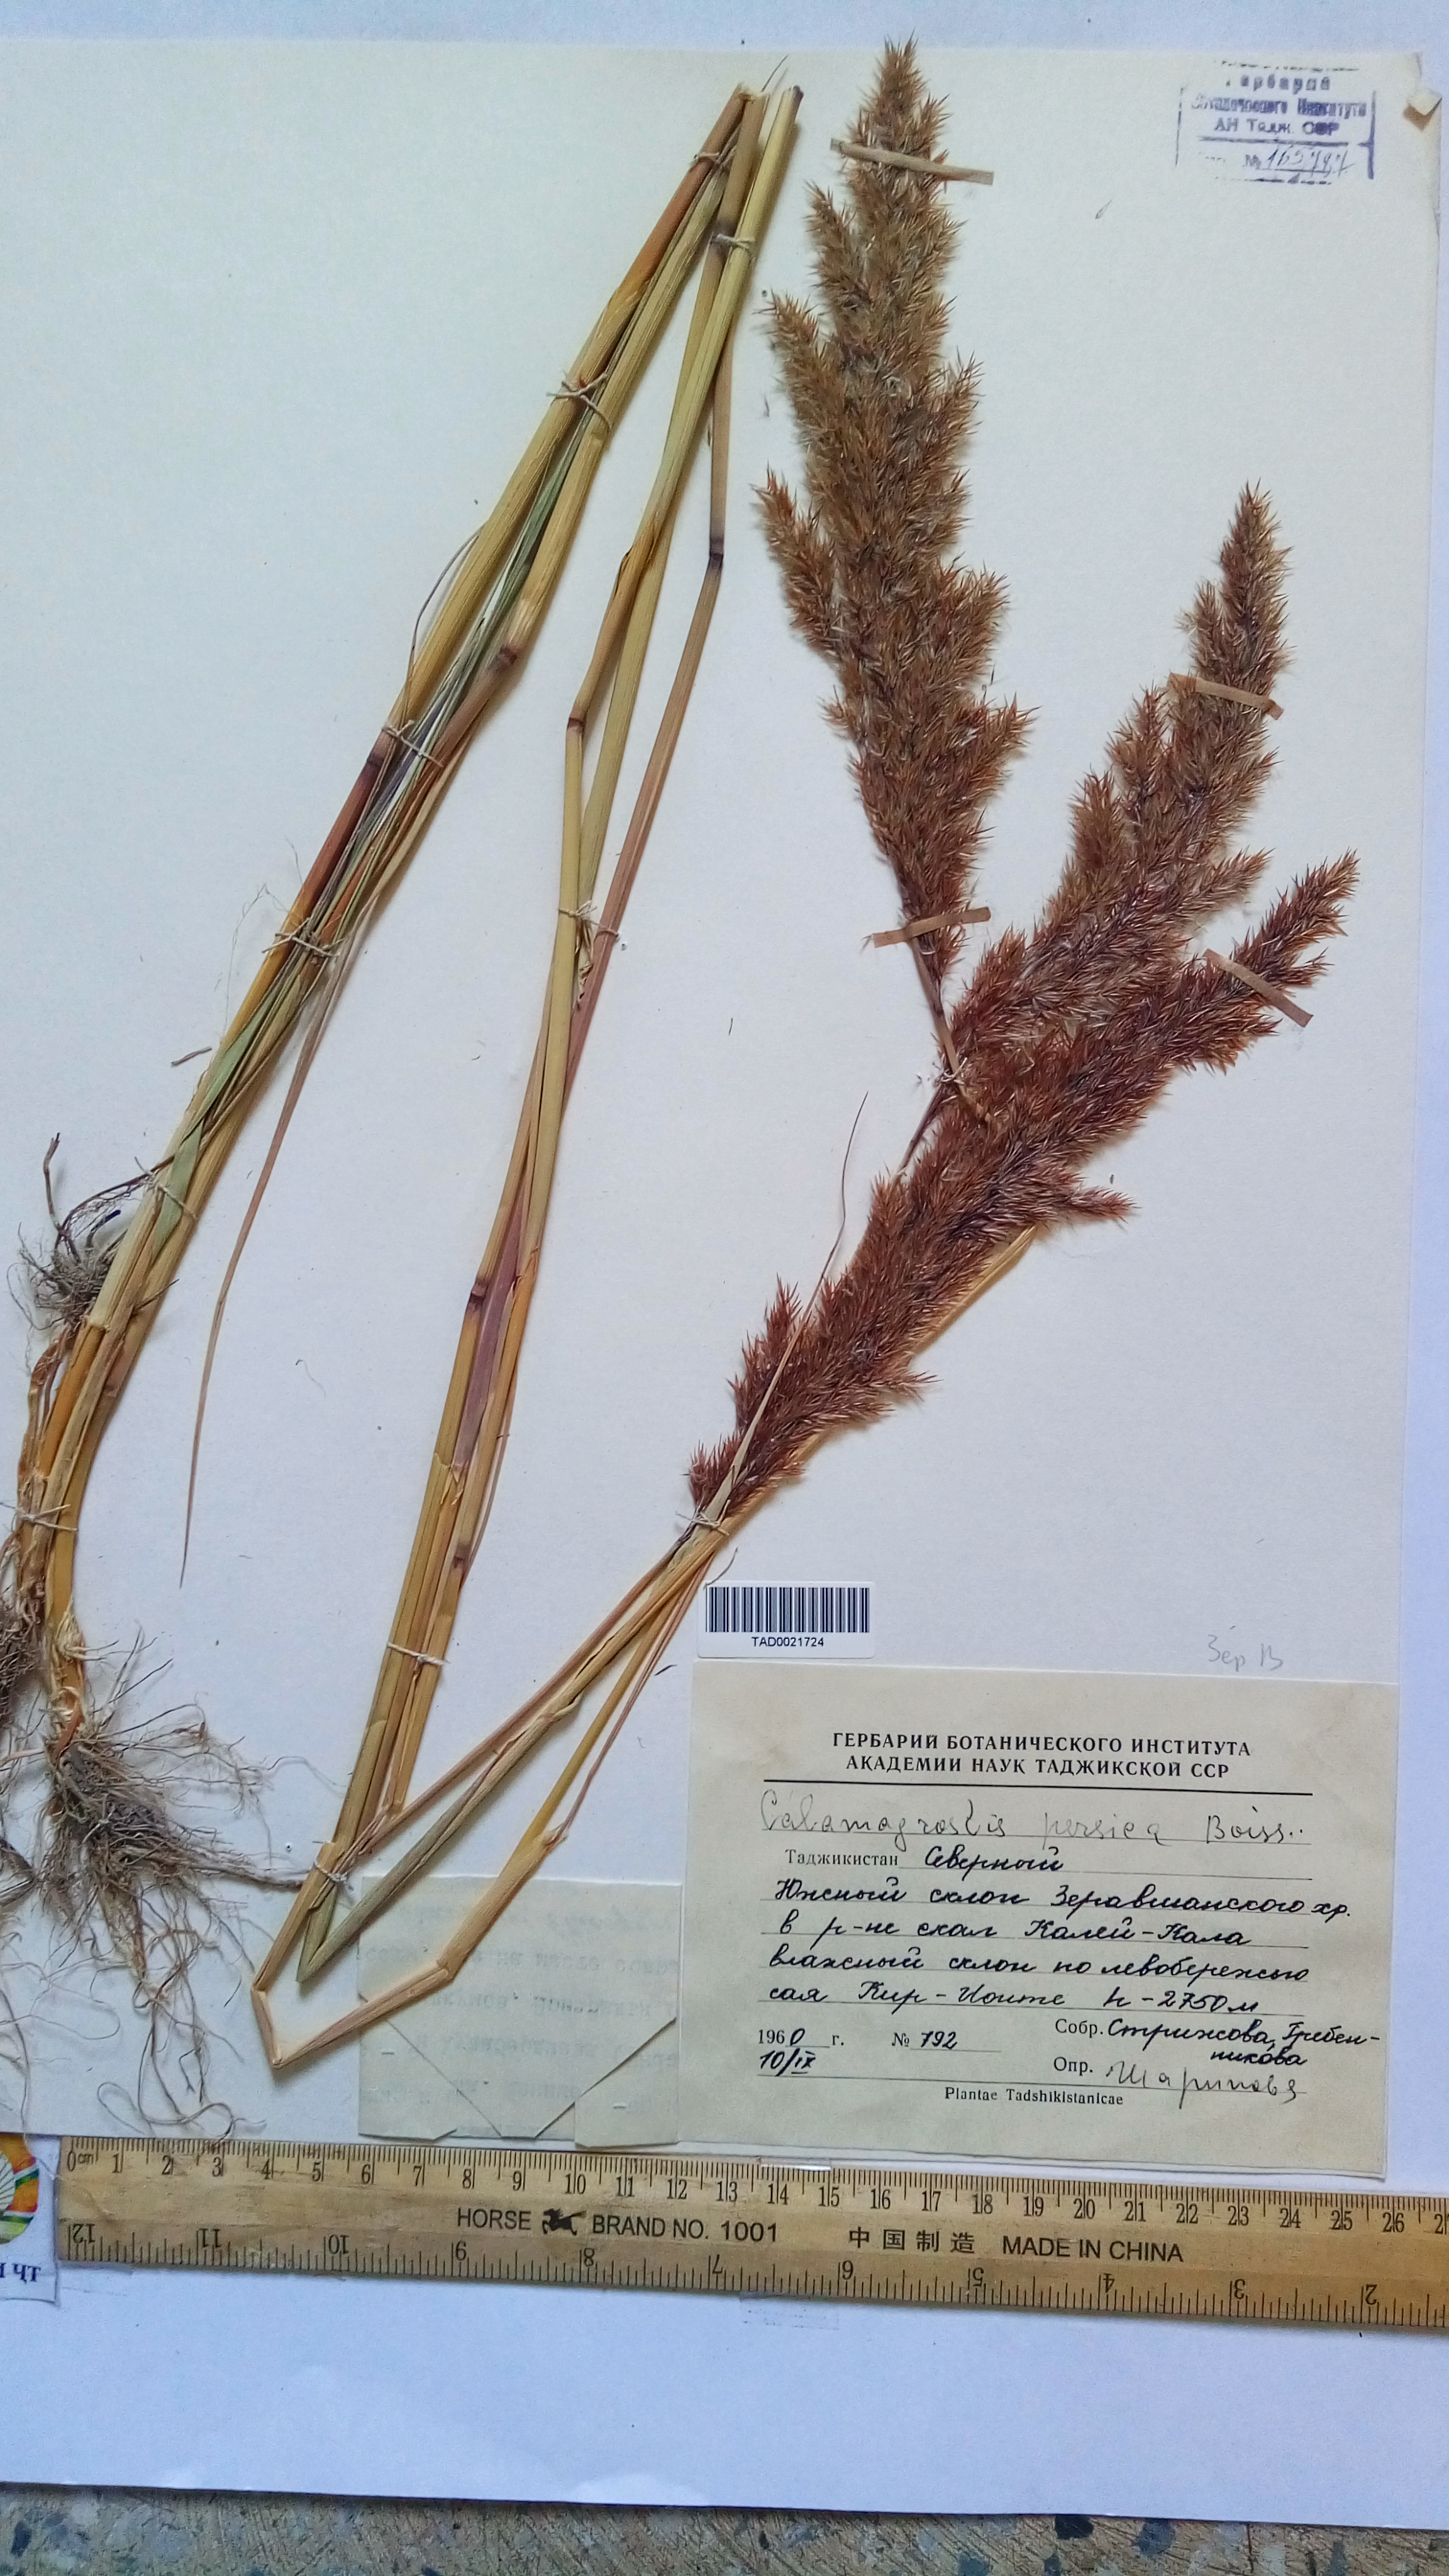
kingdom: Plantae
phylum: Tracheophyta
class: Liliopsida
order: Poales
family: Poaceae
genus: Calamagrostis
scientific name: Calamagrostis pseudophragmites
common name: Coastal small-reed
